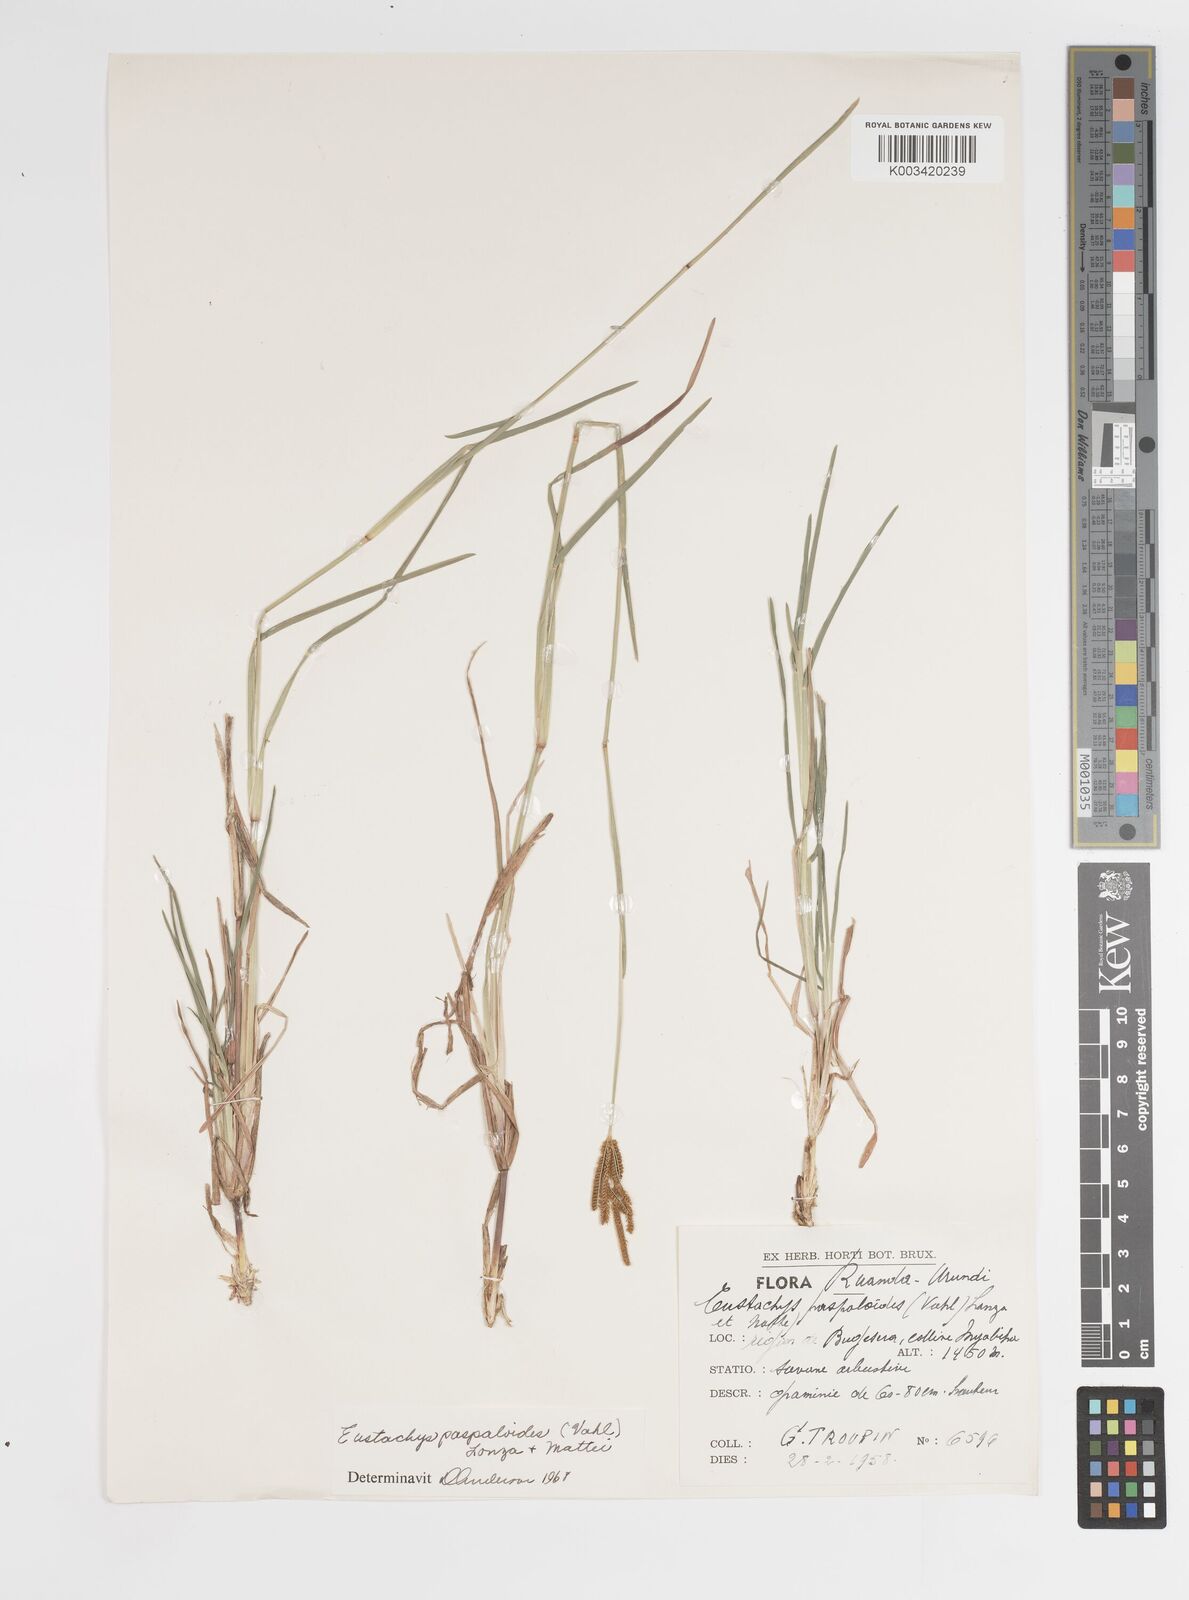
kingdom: Plantae
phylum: Tracheophyta
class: Liliopsida
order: Poales
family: Poaceae
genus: Eustachys
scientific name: Eustachys paspaloides
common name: Caribbean fingergrass
